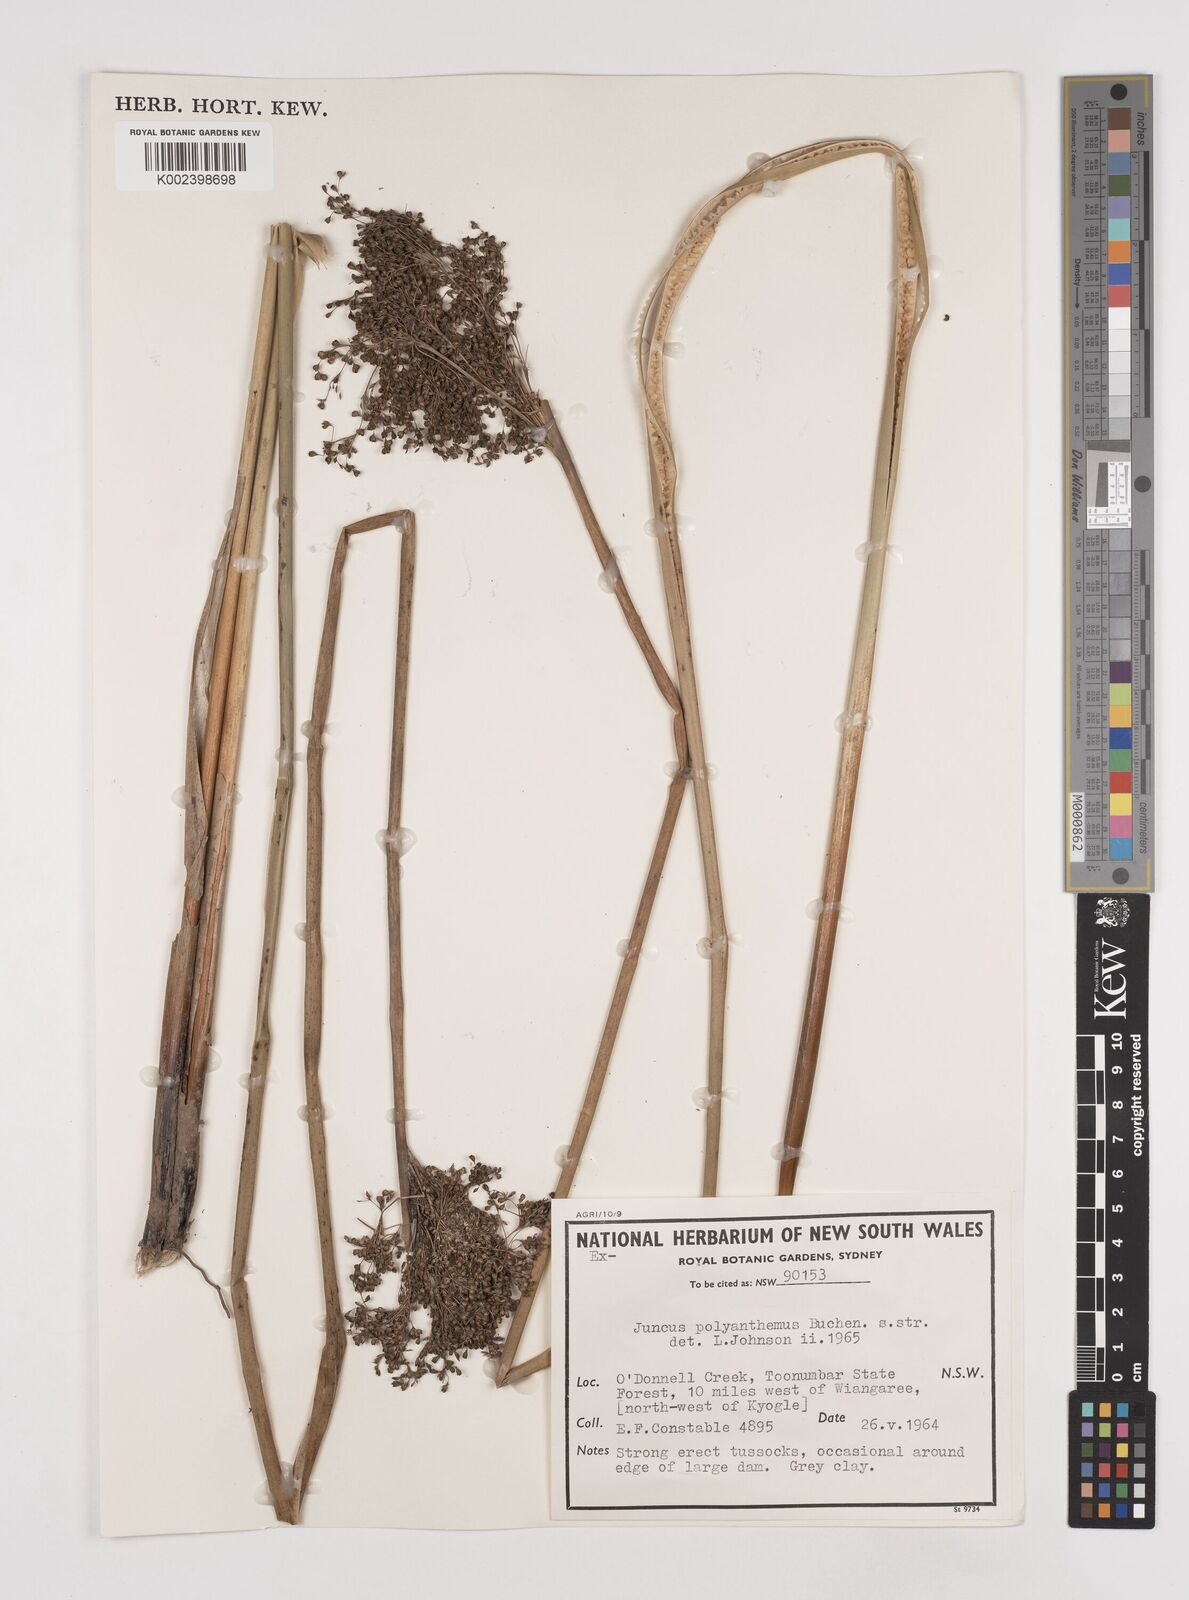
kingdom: Plantae
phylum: Tracheophyta
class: Liliopsida
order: Poales
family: Juncaceae
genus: Juncus
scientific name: Juncus polyanthemus
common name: Manyflower rush
